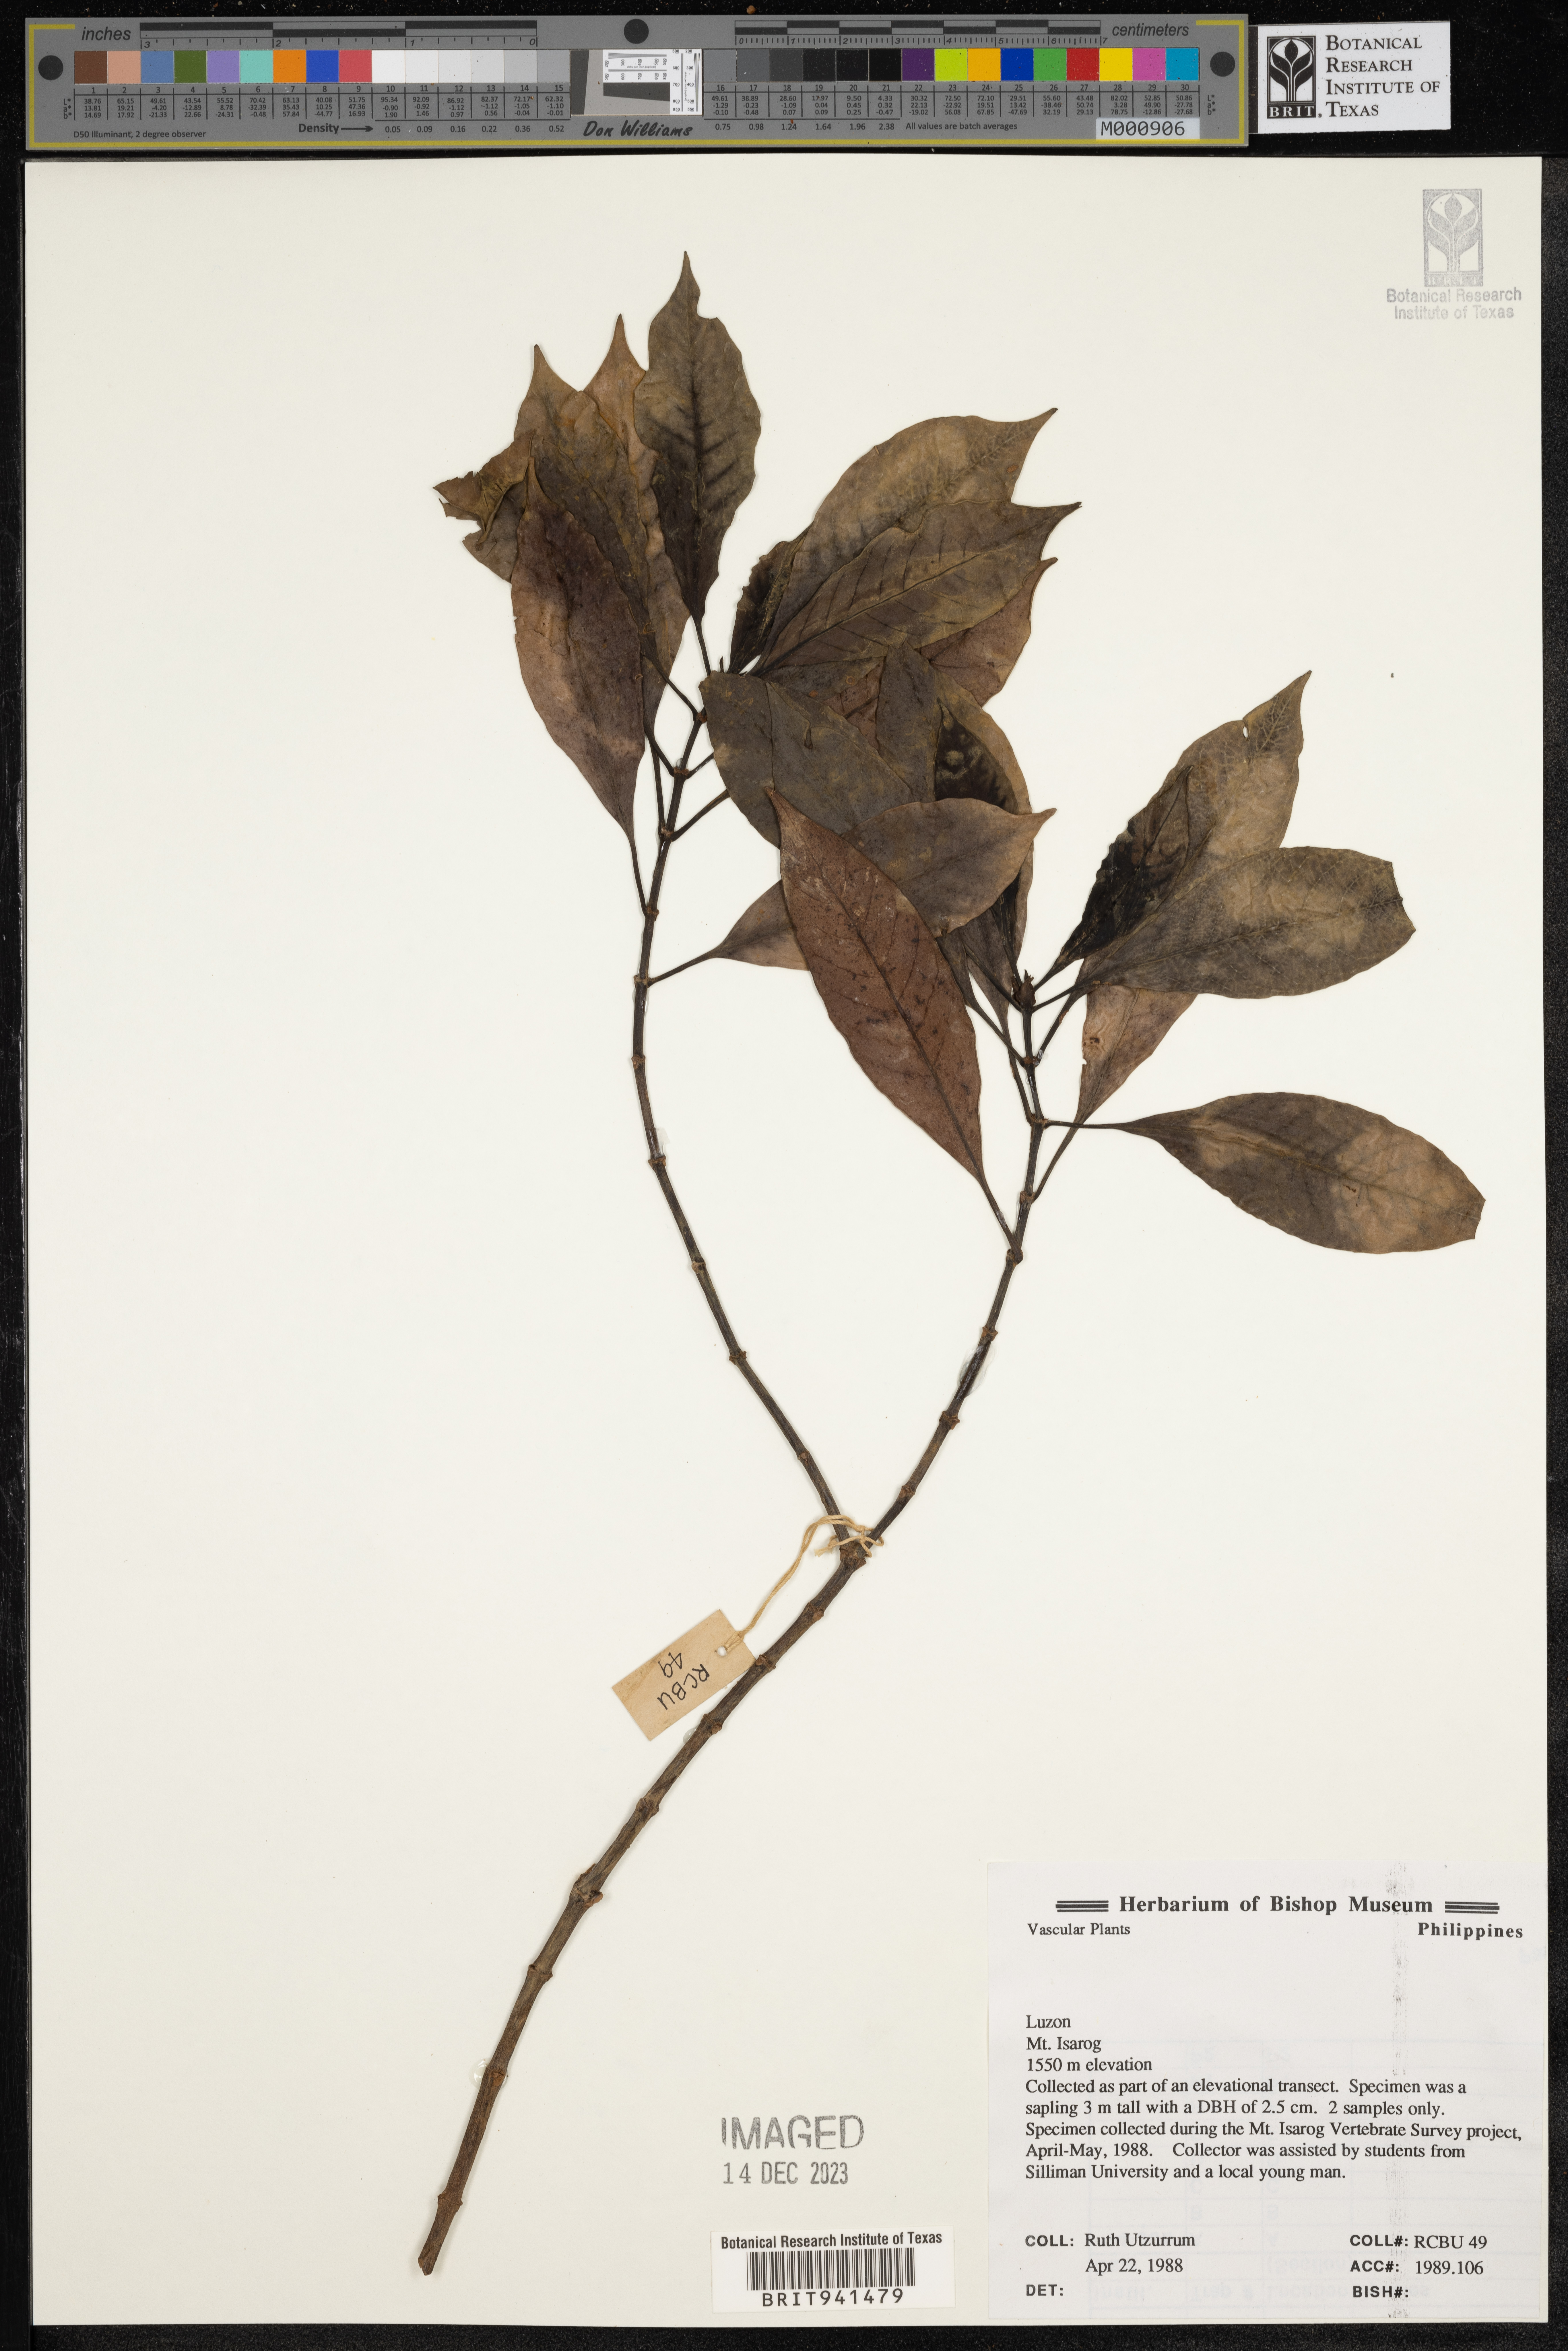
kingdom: Plantae
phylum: Tracheophyta
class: Magnoliopsida
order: Gentianales
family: Rubiaceae
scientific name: Rubiaceae
